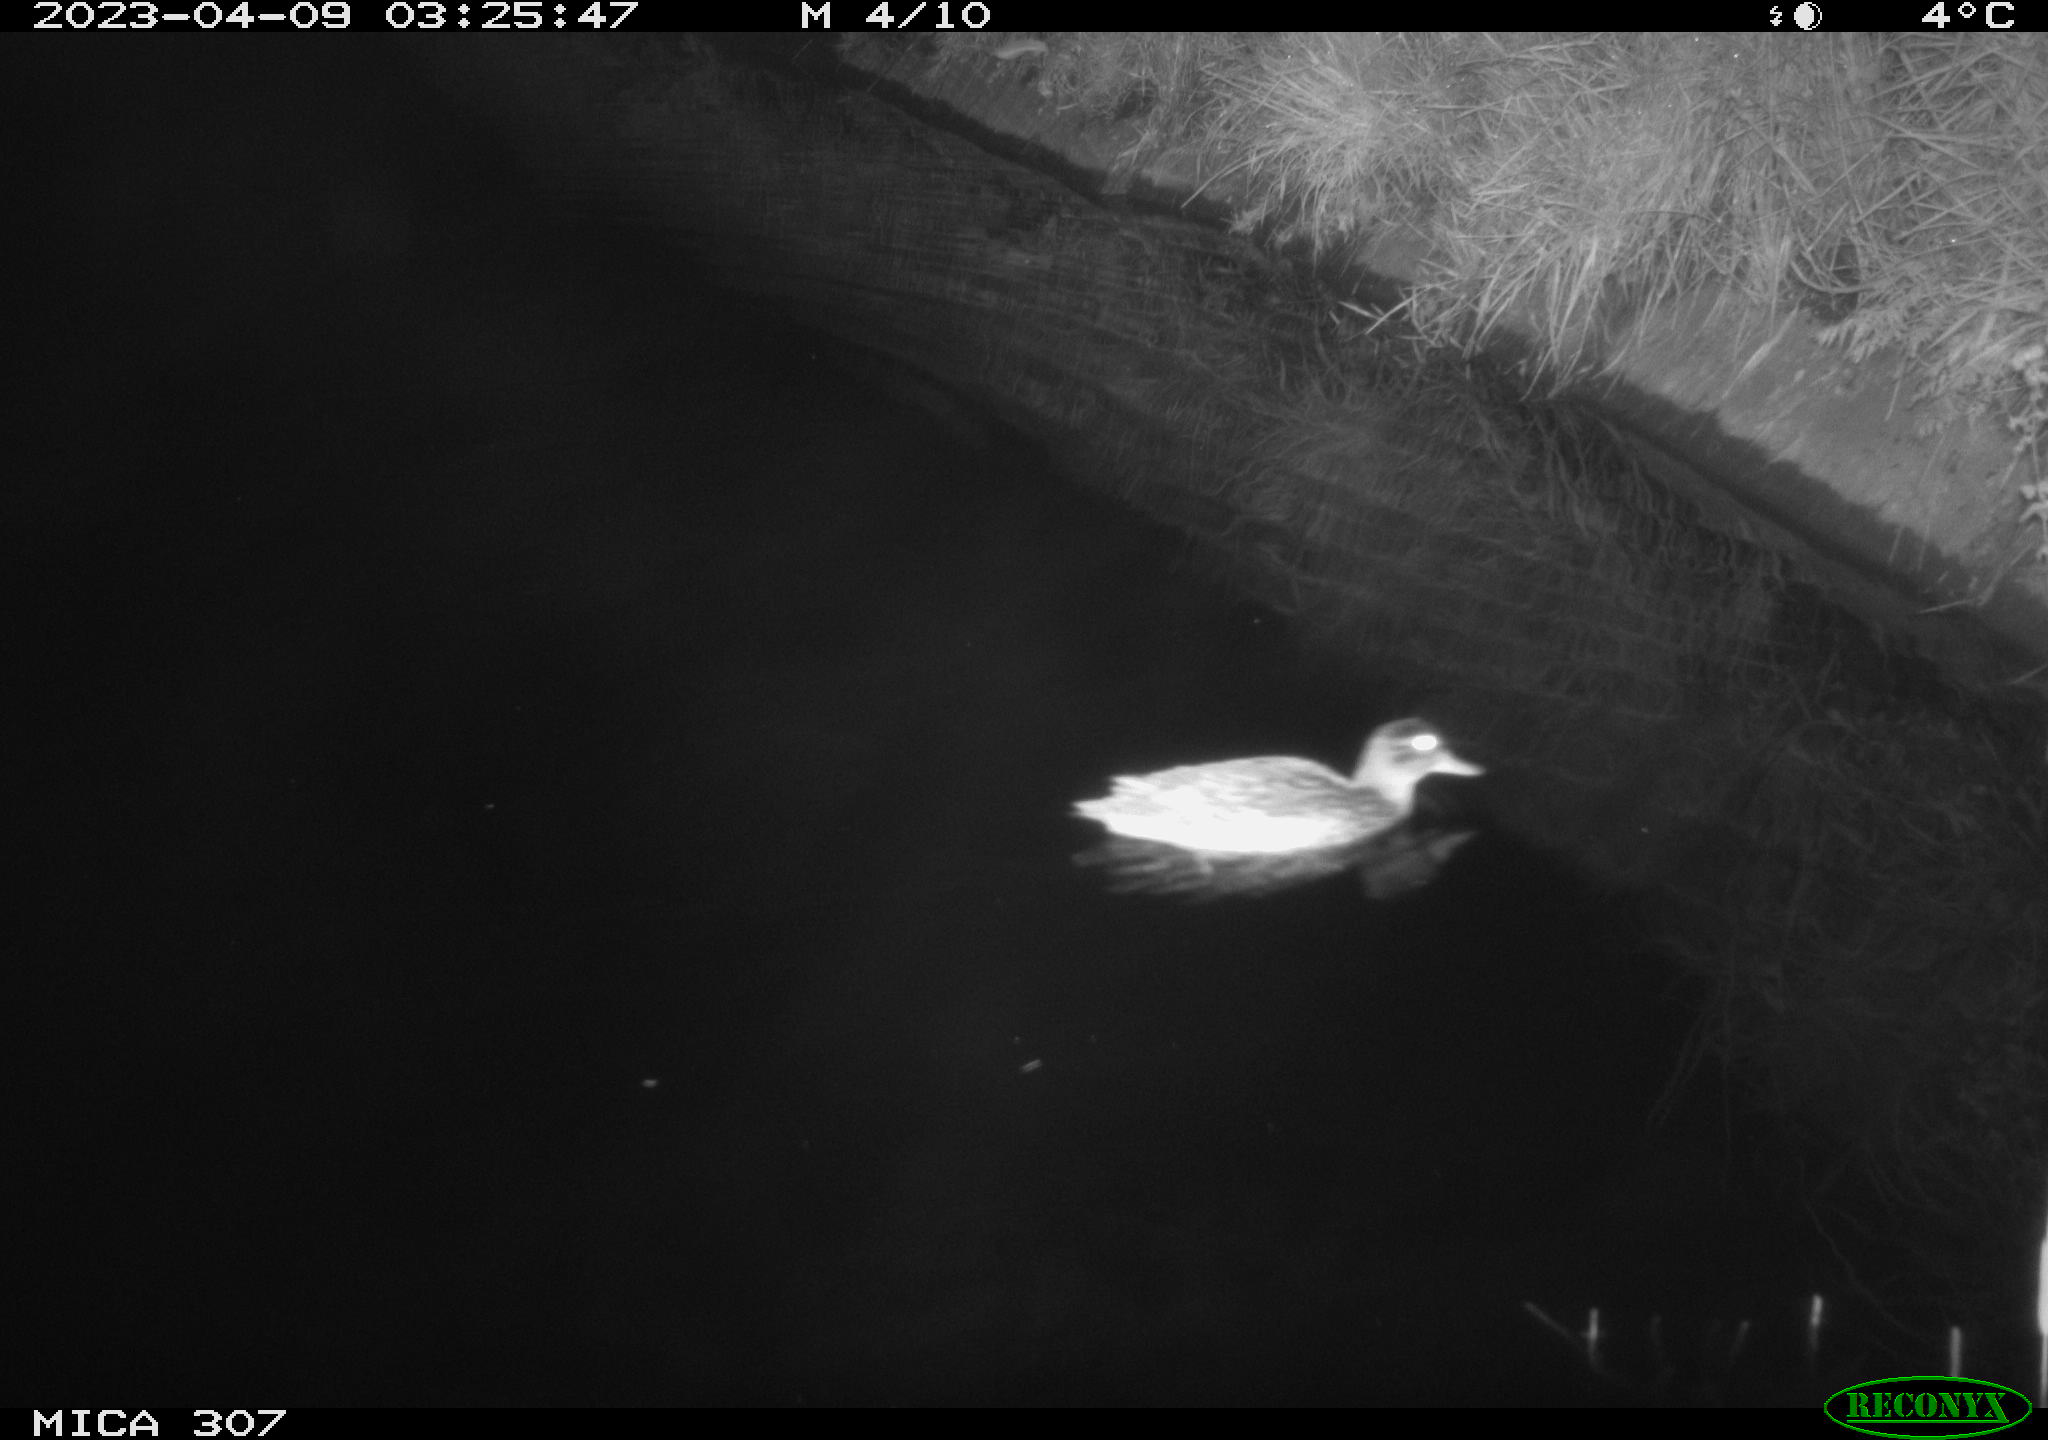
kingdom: Animalia
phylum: Chordata
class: Aves
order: Anseriformes
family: Anatidae
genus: Anas
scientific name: Anas
